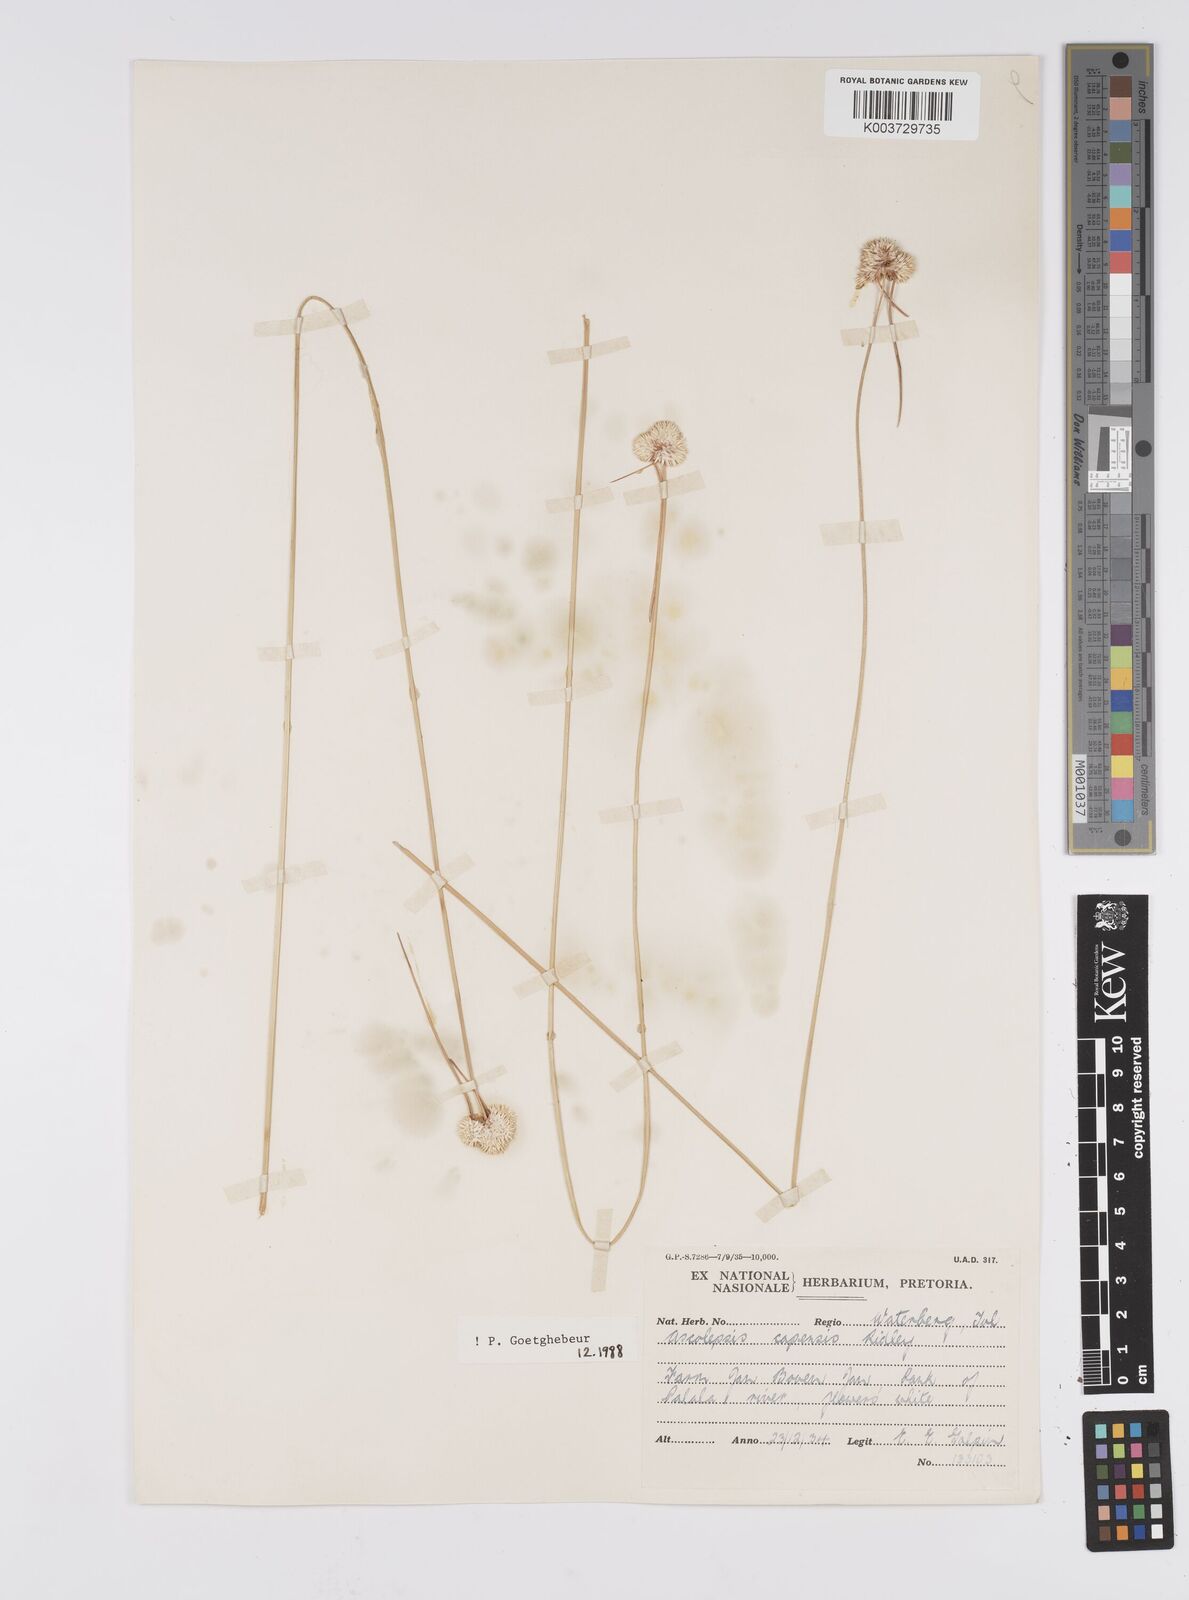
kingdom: Plantae
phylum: Tracheophyta
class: Liliopsida
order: Poales
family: Cyperaceae
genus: Cyperus
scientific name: Cyperus capensis
